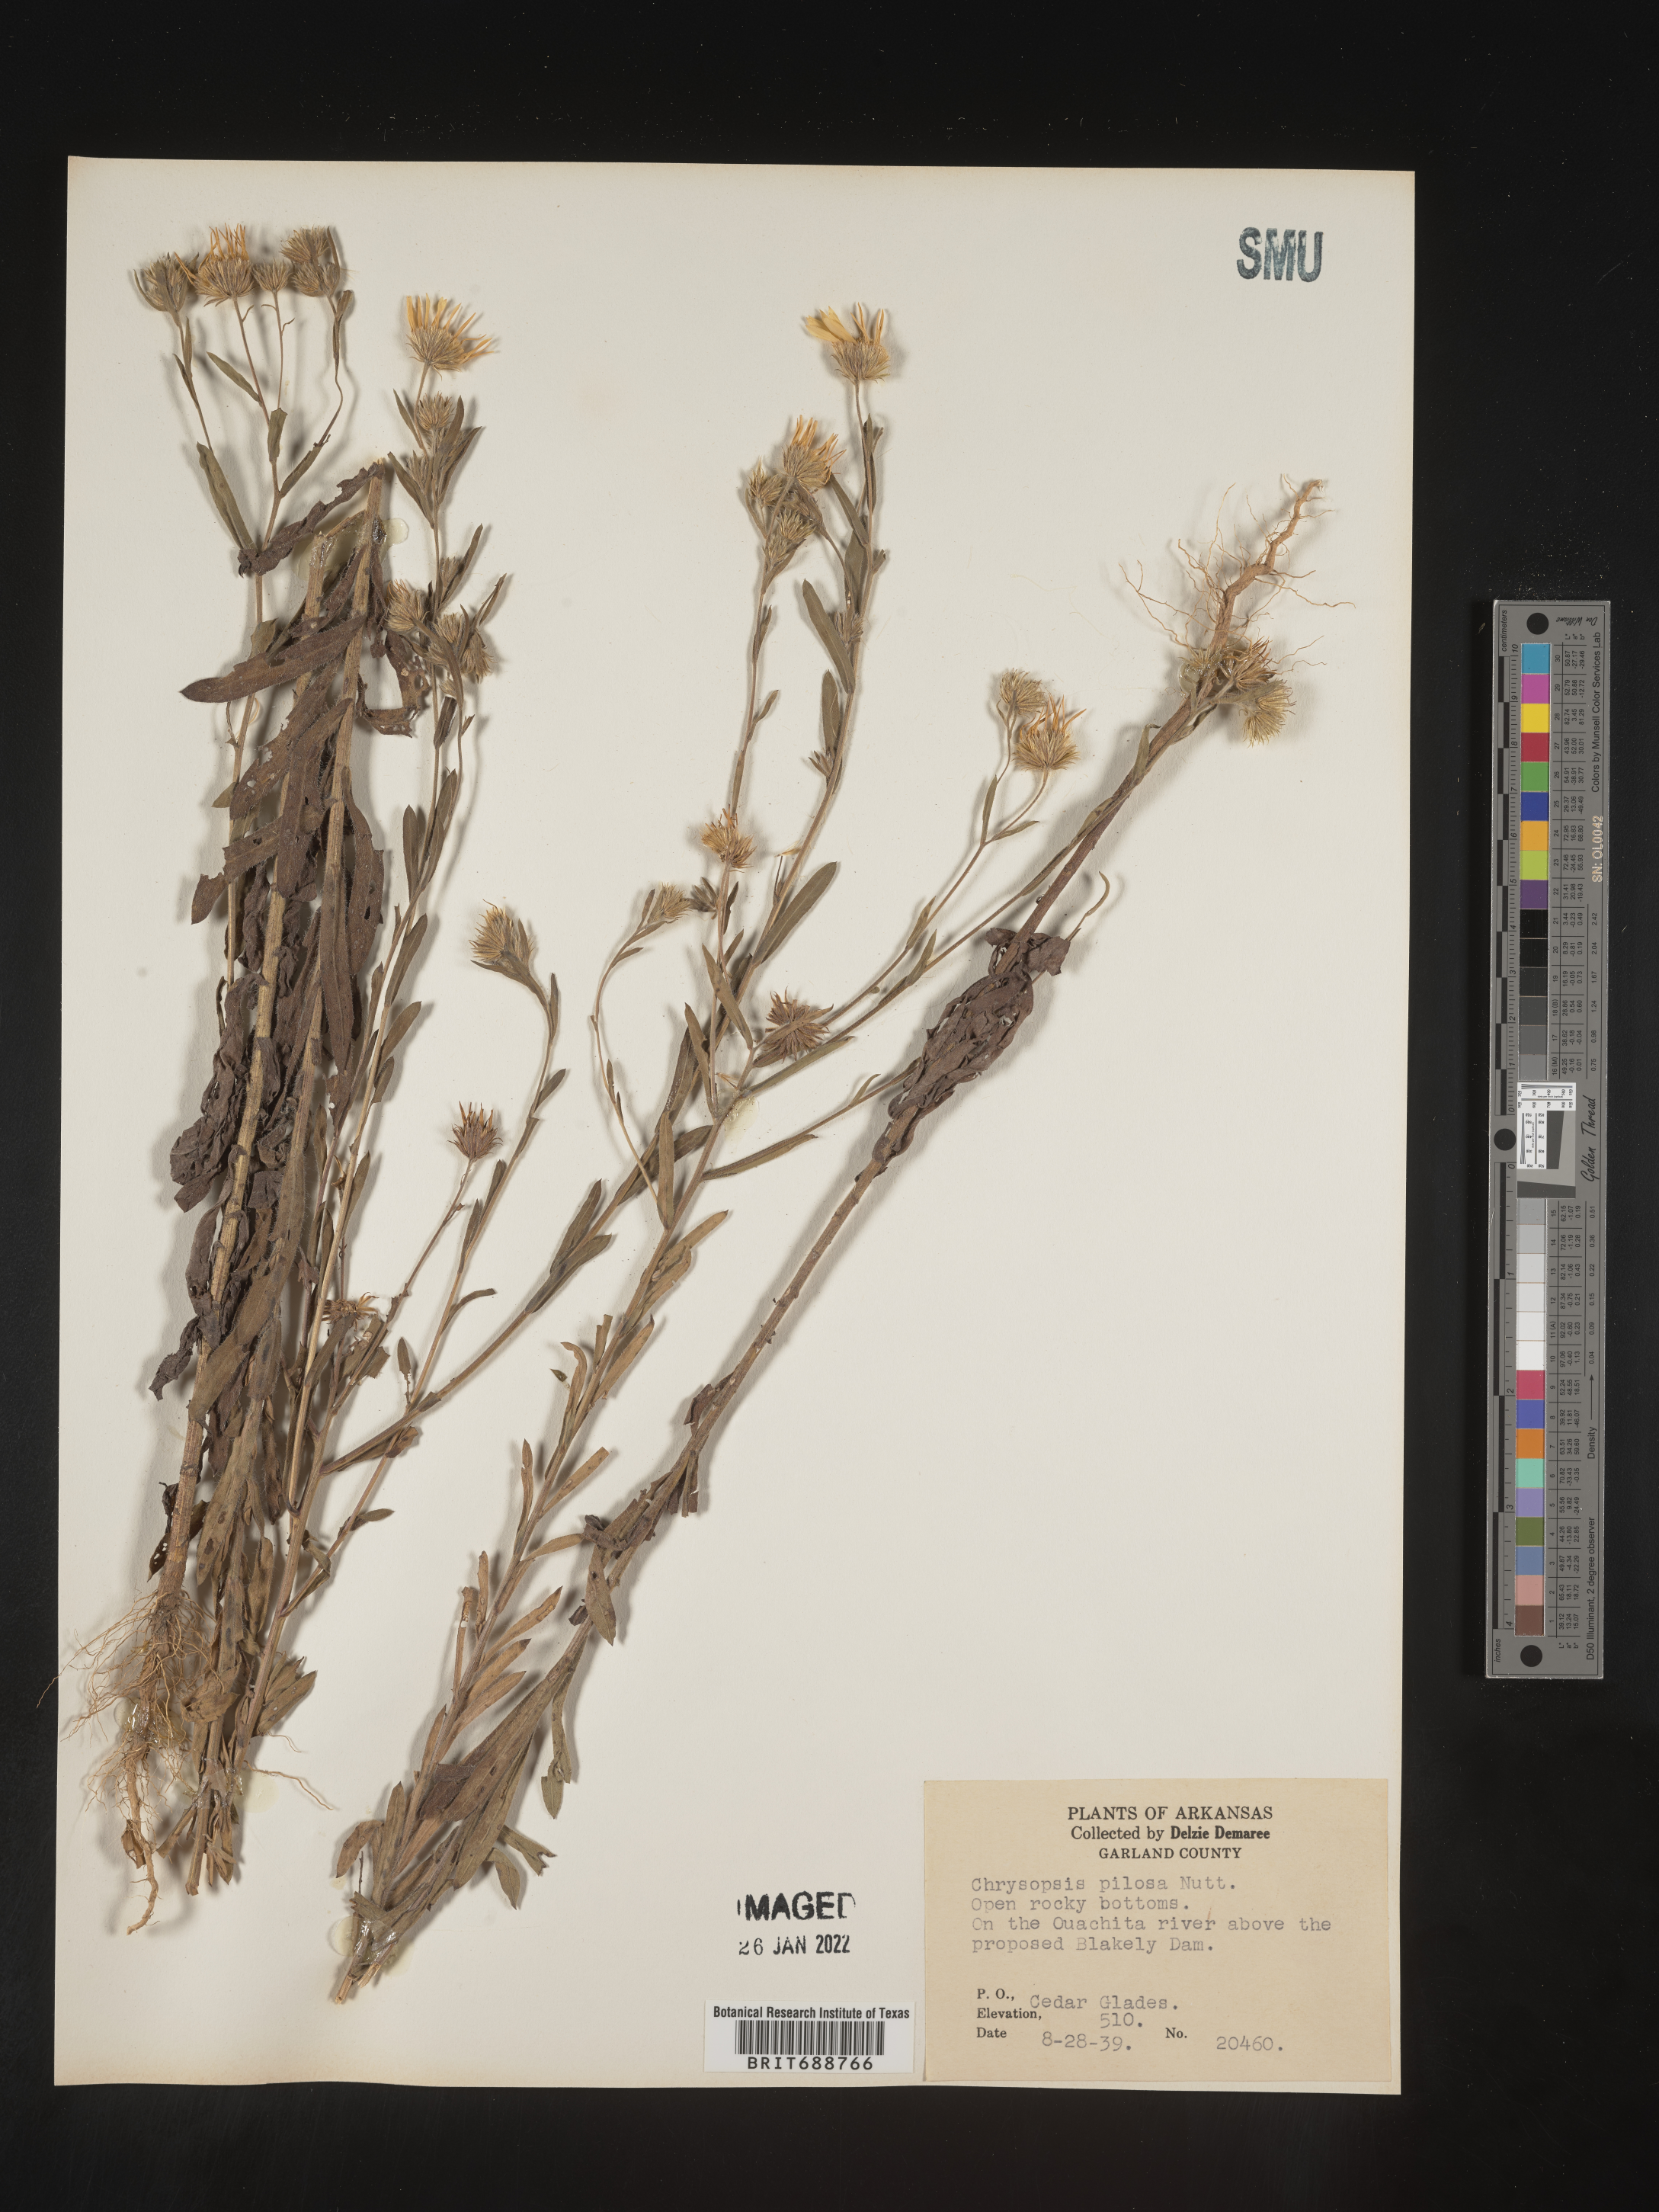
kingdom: Plantae
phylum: Tracheophyta
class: Magnoliopsida
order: Asterales
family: Asteraceae
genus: Bradburia
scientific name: Bradburia pilosa
